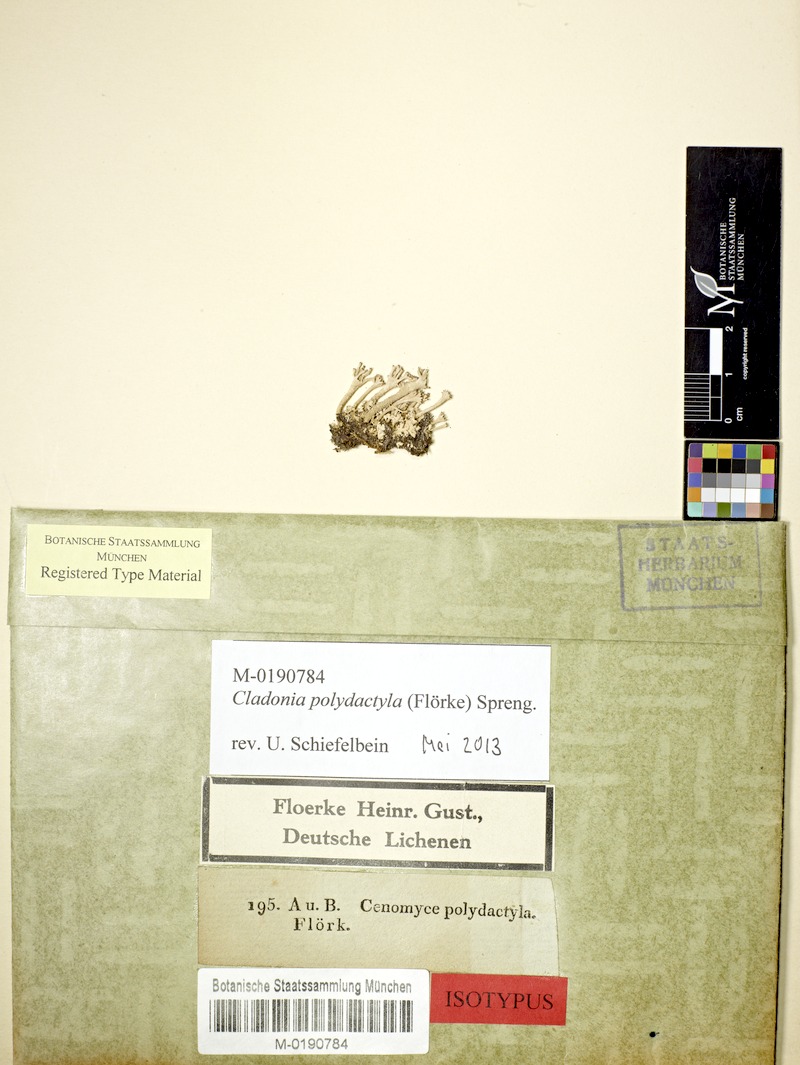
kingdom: Fungi
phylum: Ascomycota
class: Lecanoromycetes
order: Lecanorales
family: Cladoniaceae
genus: Cladonia
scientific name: Cladonia polydactyla
